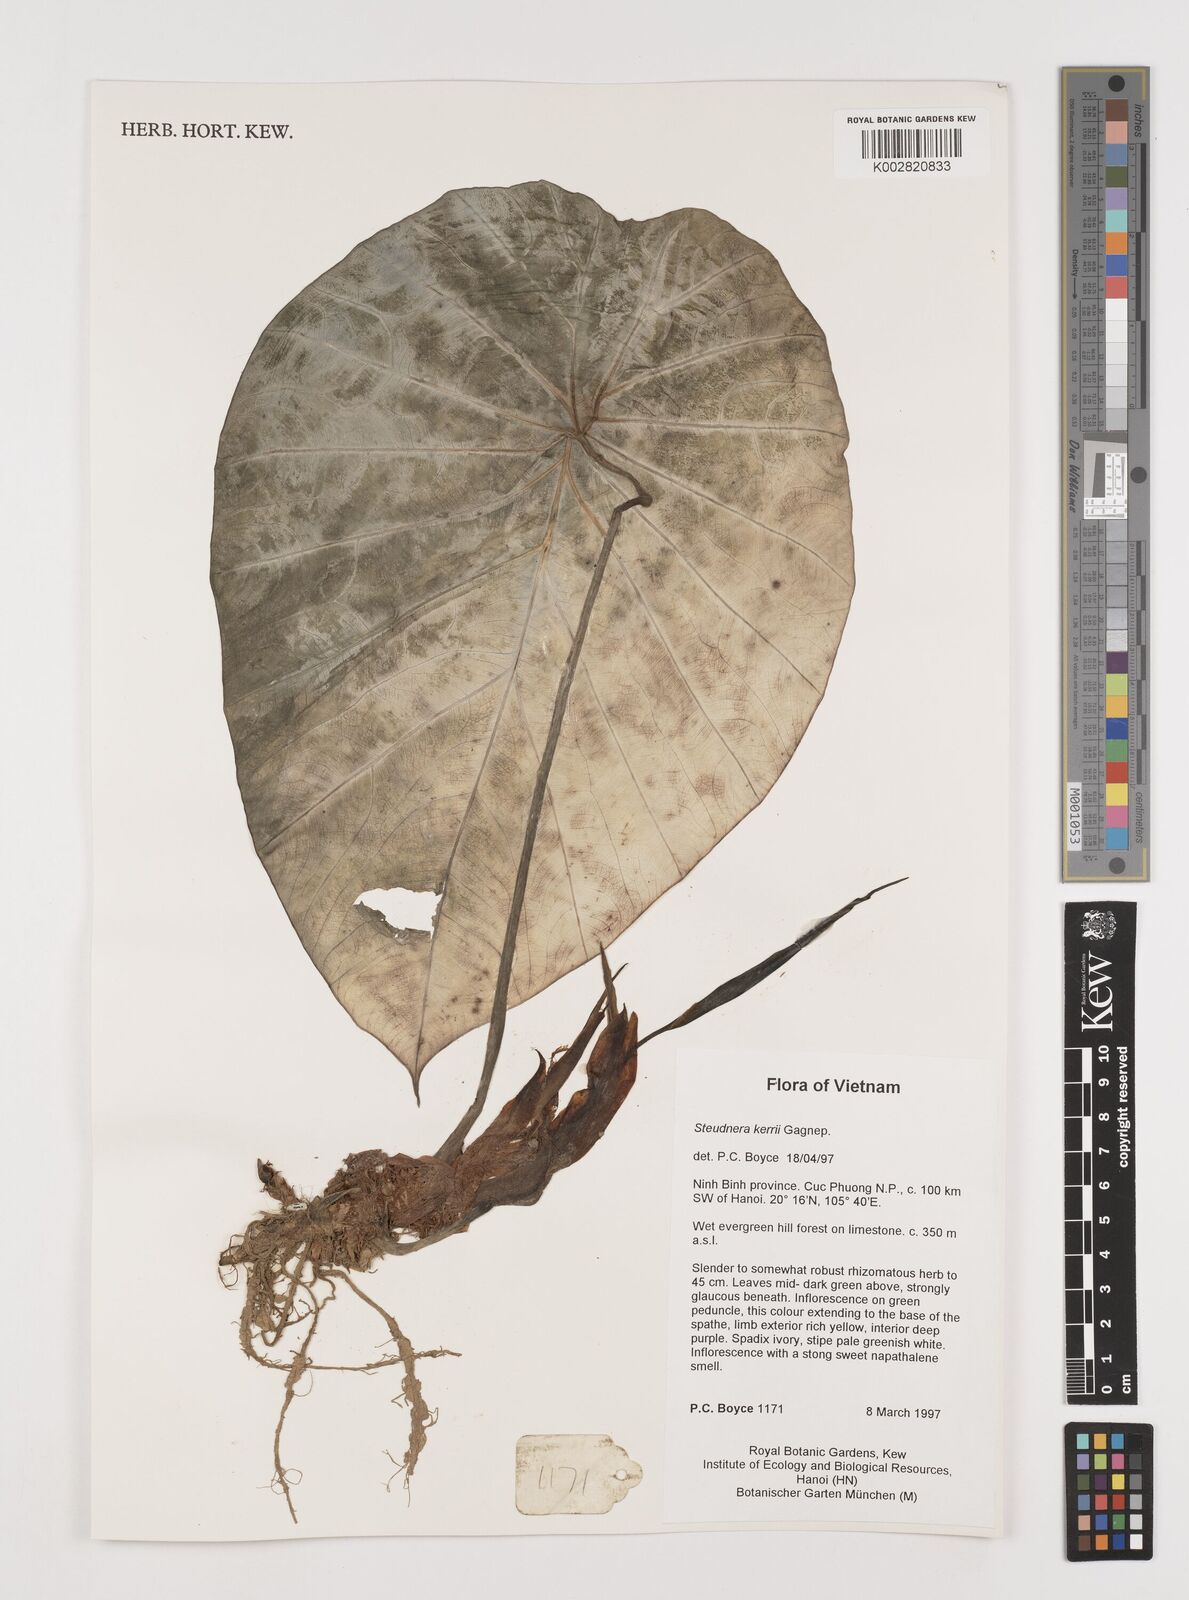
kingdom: Plantae
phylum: Tracheophyta
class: Liliopsida
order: Alismatales
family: Araceae
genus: Steudnera
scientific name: Steudnera kerrii
